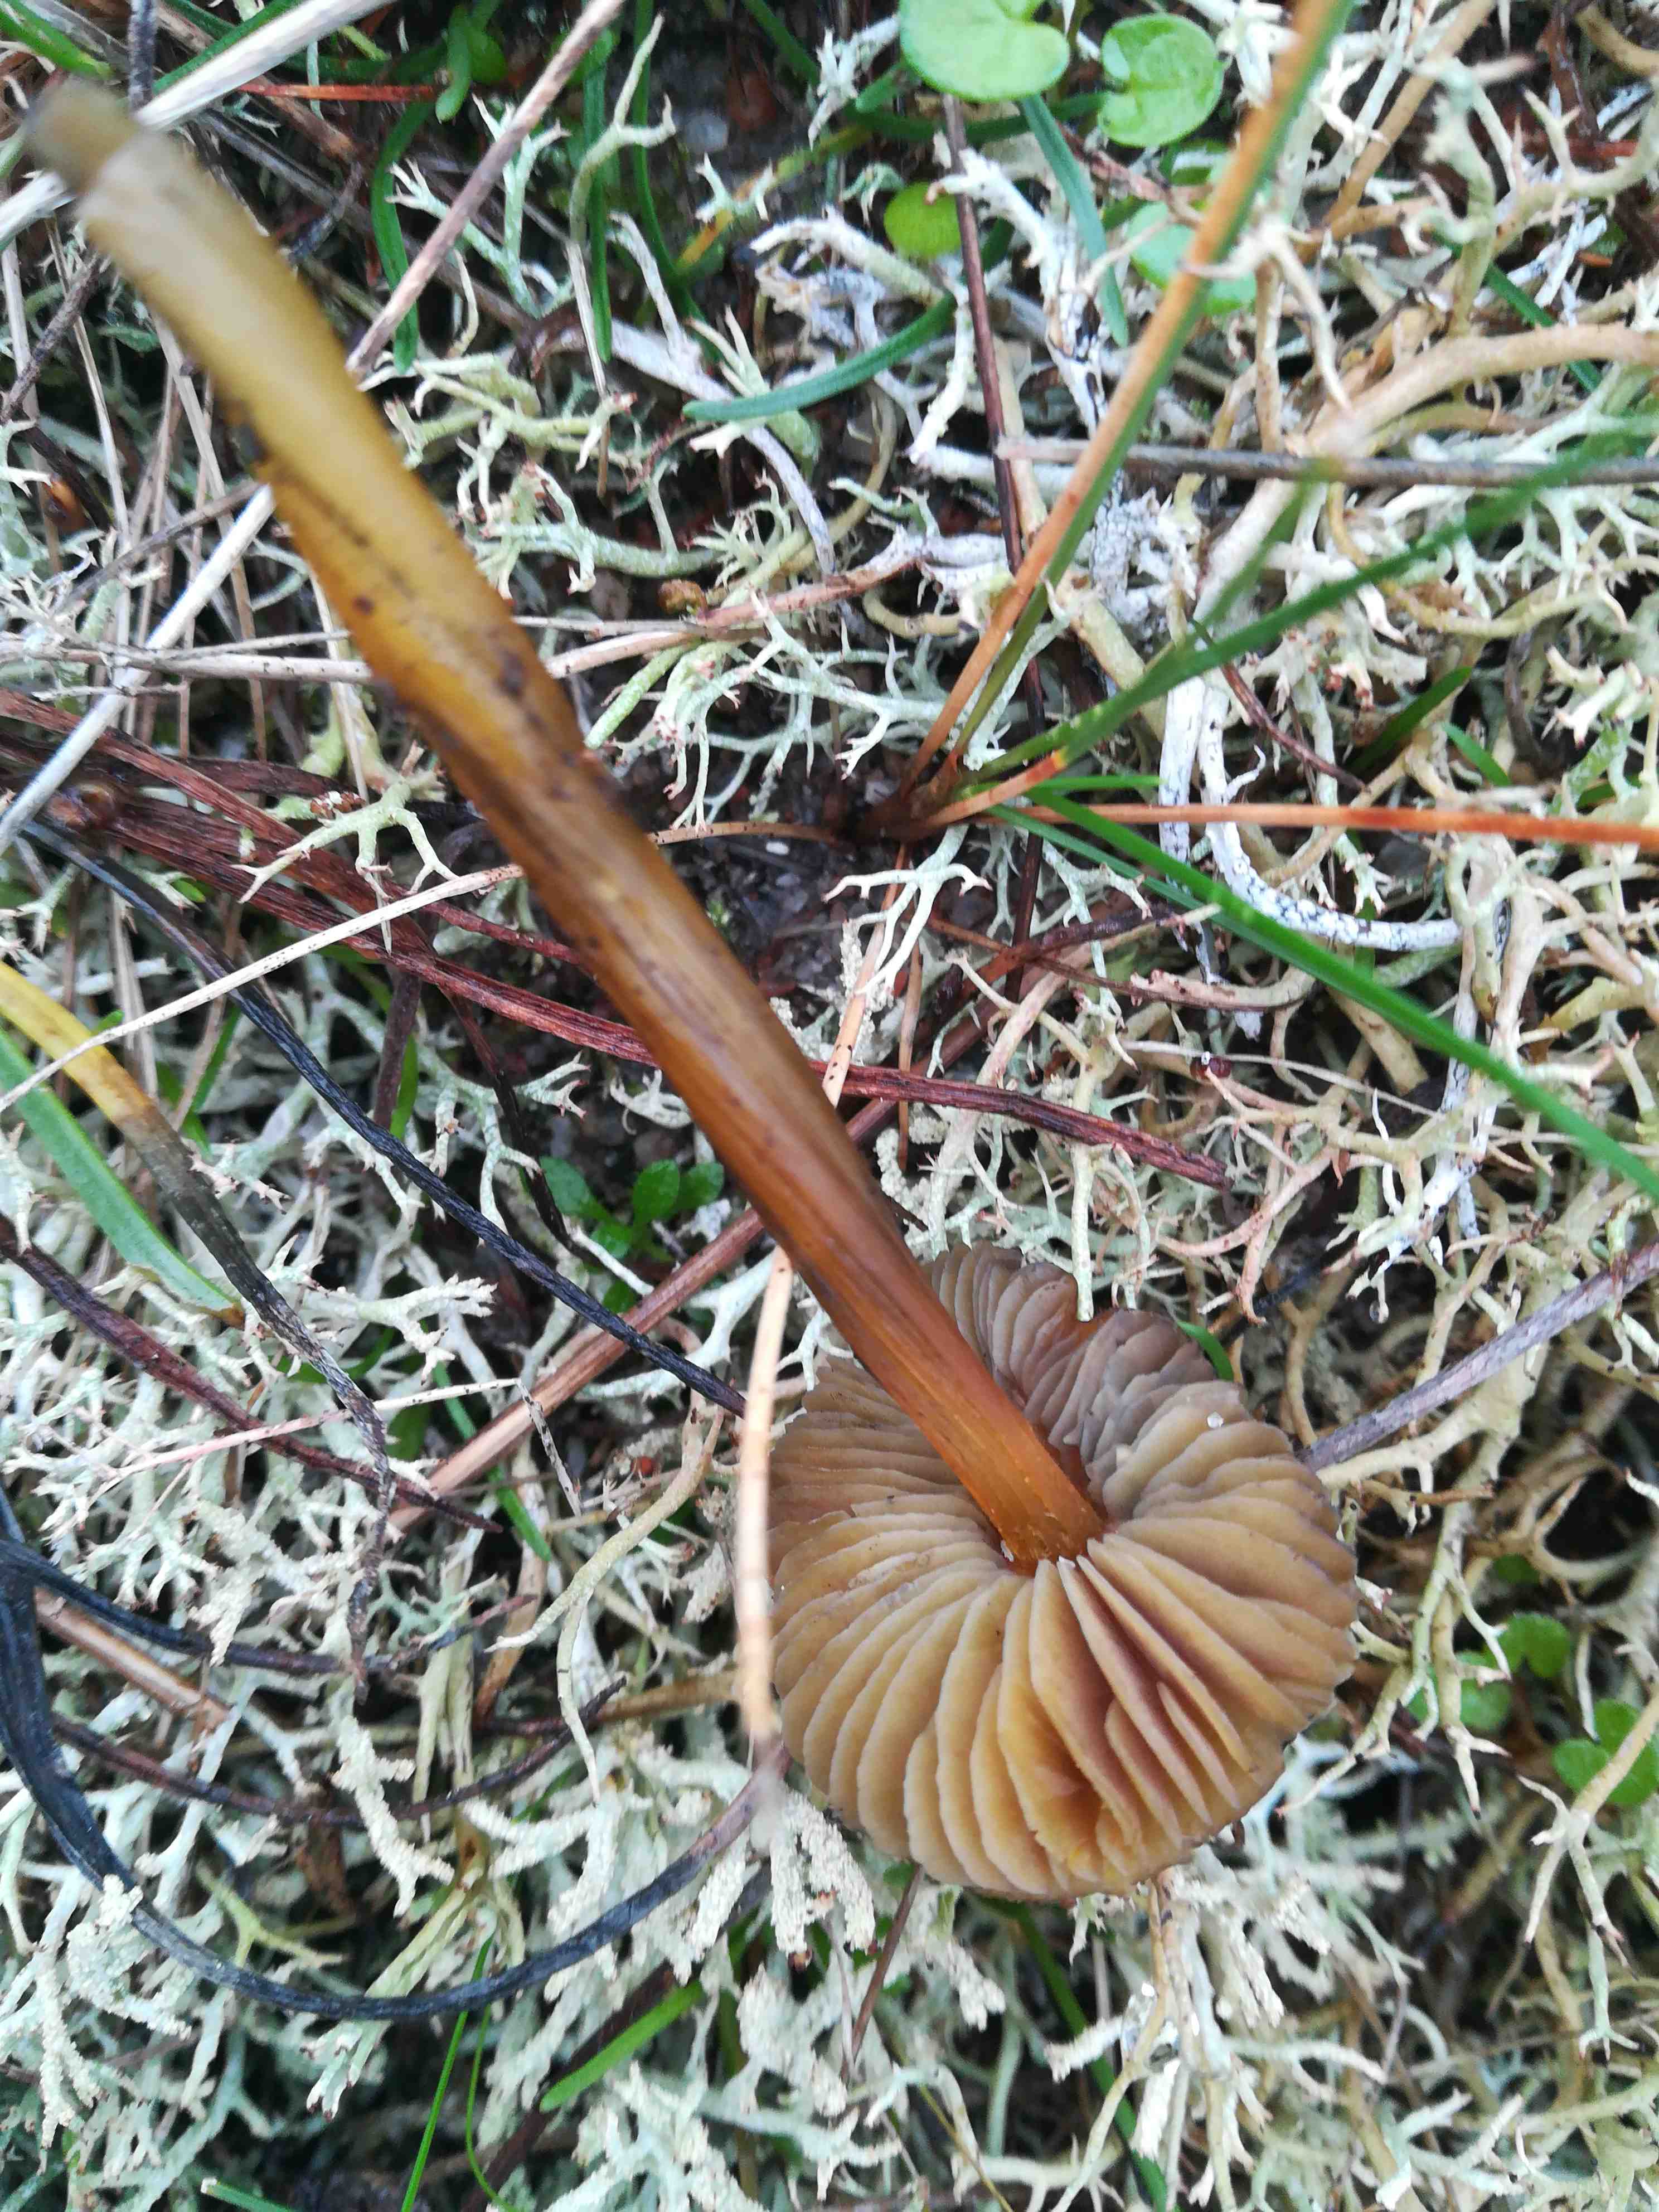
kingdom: Fungi
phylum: Basidiomycota
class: Agaricomycetes
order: Agaricales
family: Hygrophoraceae
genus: Hygrocybe
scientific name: Hygrocybe conica
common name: kegle-vokshat
